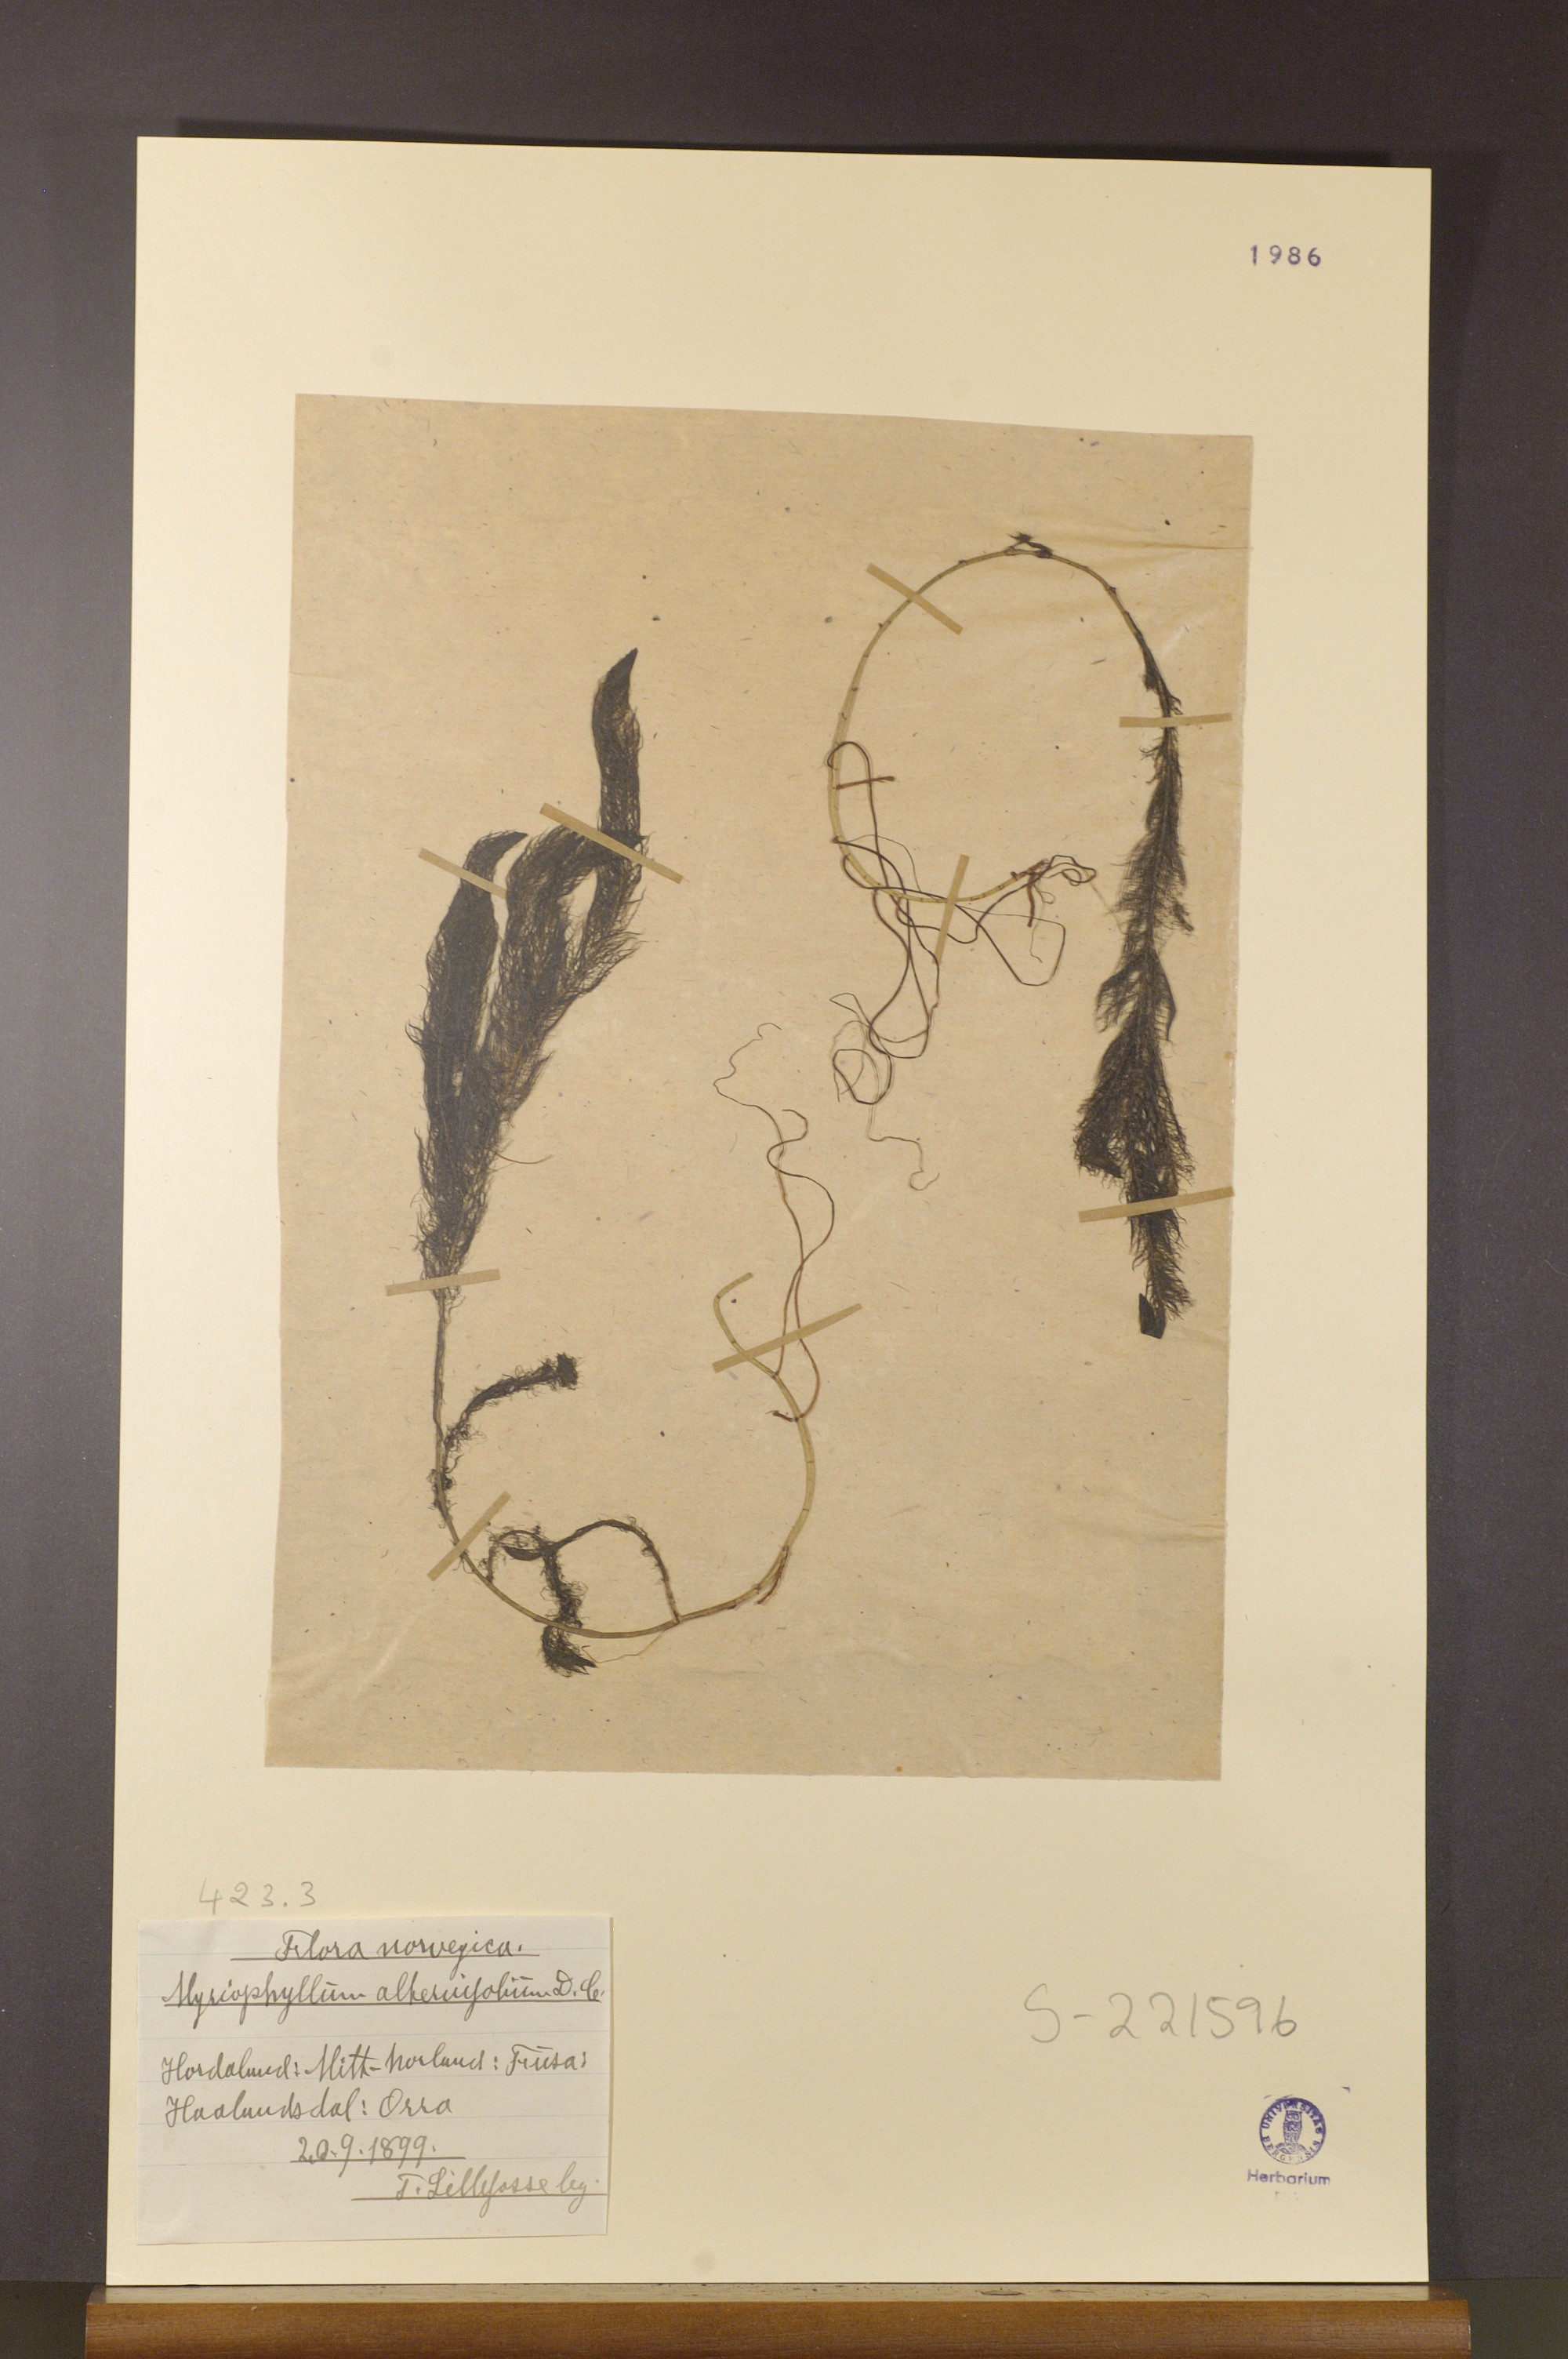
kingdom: Plantae
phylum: Tracheophyta
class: Magnoliopsida
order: Saxifragales
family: Haloragaceae
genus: Myriophyllum
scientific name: Myriophyllum alterniflorum
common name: Alternate water-milfoil
